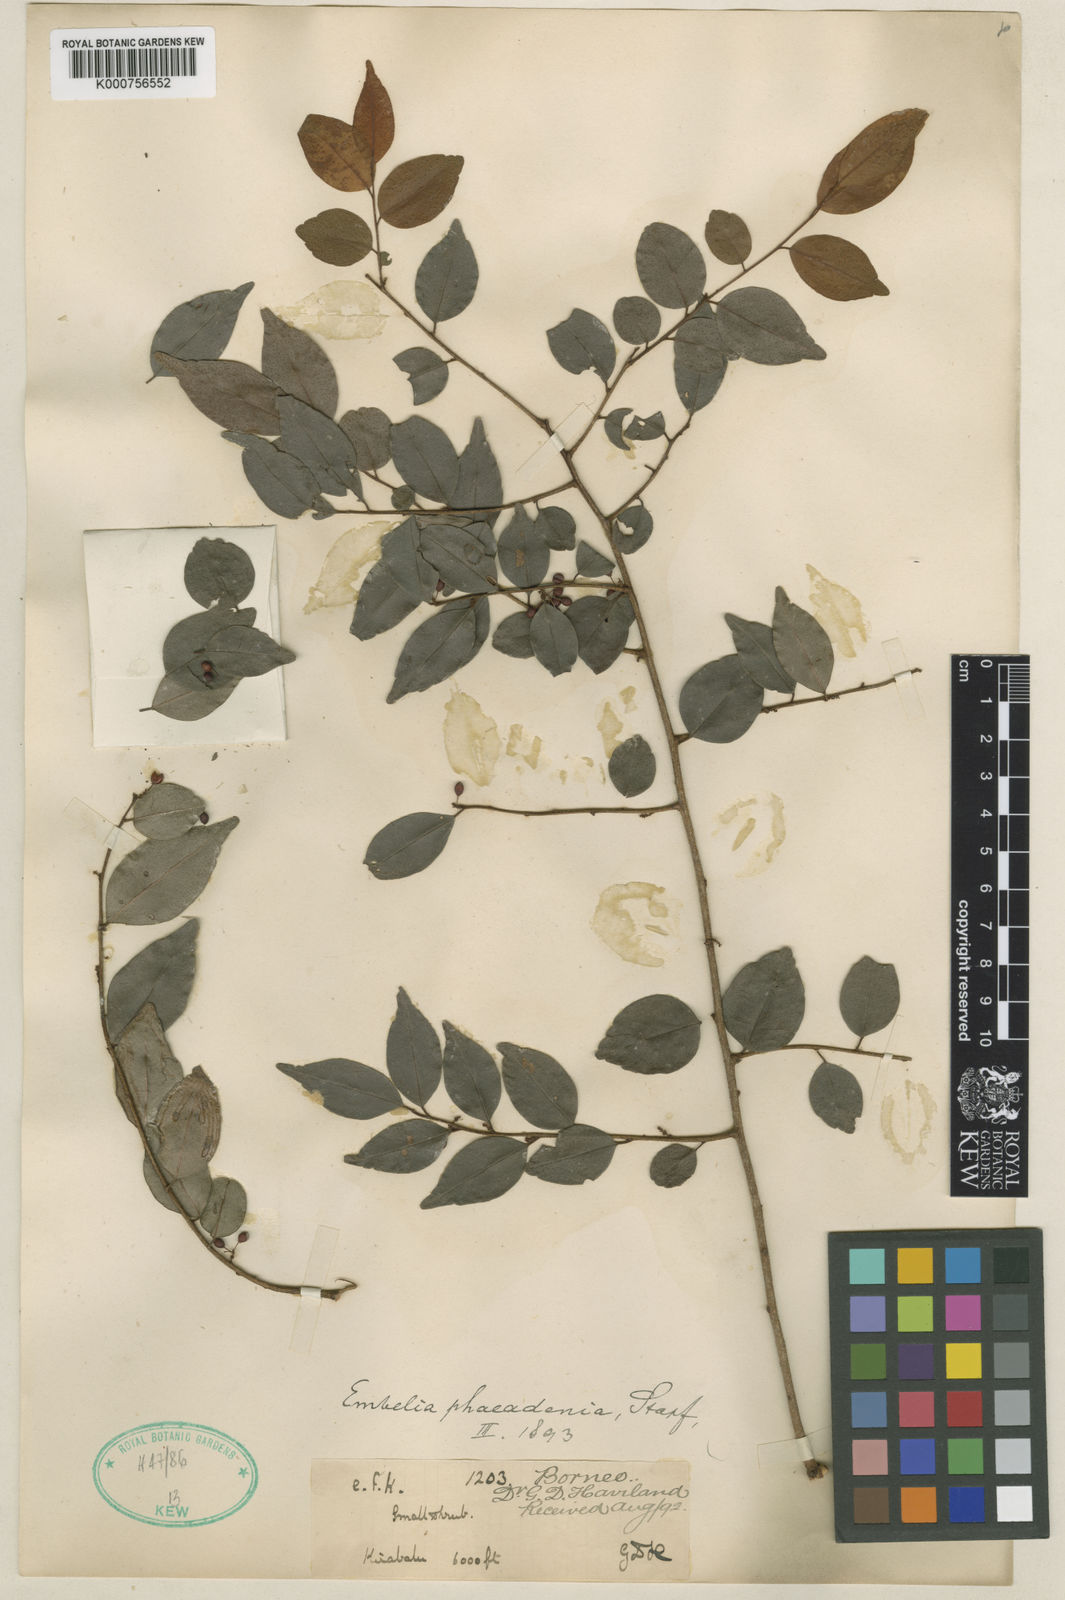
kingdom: Plantae
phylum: Tracheophyta
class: Magnoliopsida
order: Ericales
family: Primulaceae
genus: Embelia
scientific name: Embelia phaeadenia
